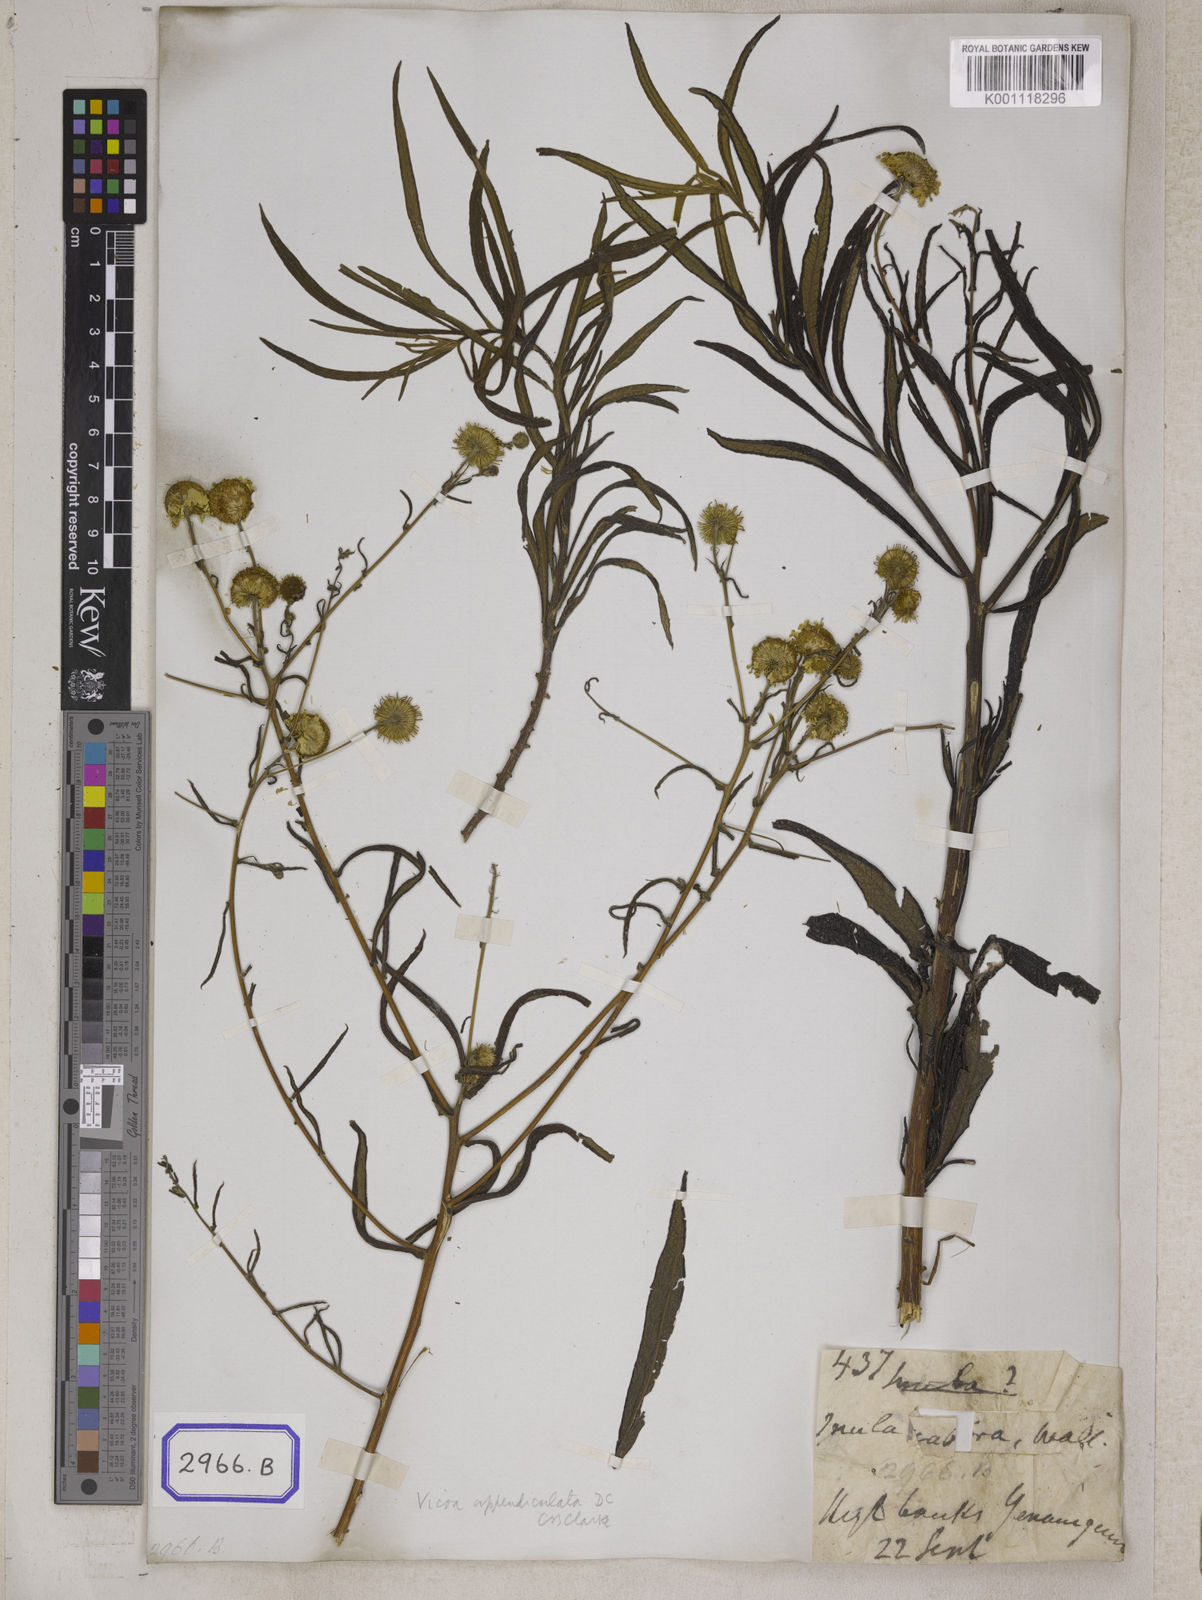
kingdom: Plantae
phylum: Tracheophyta
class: Magnoliopsida
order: Asterales
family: Asteraceae
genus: Vicoa
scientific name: Vicoa indica
